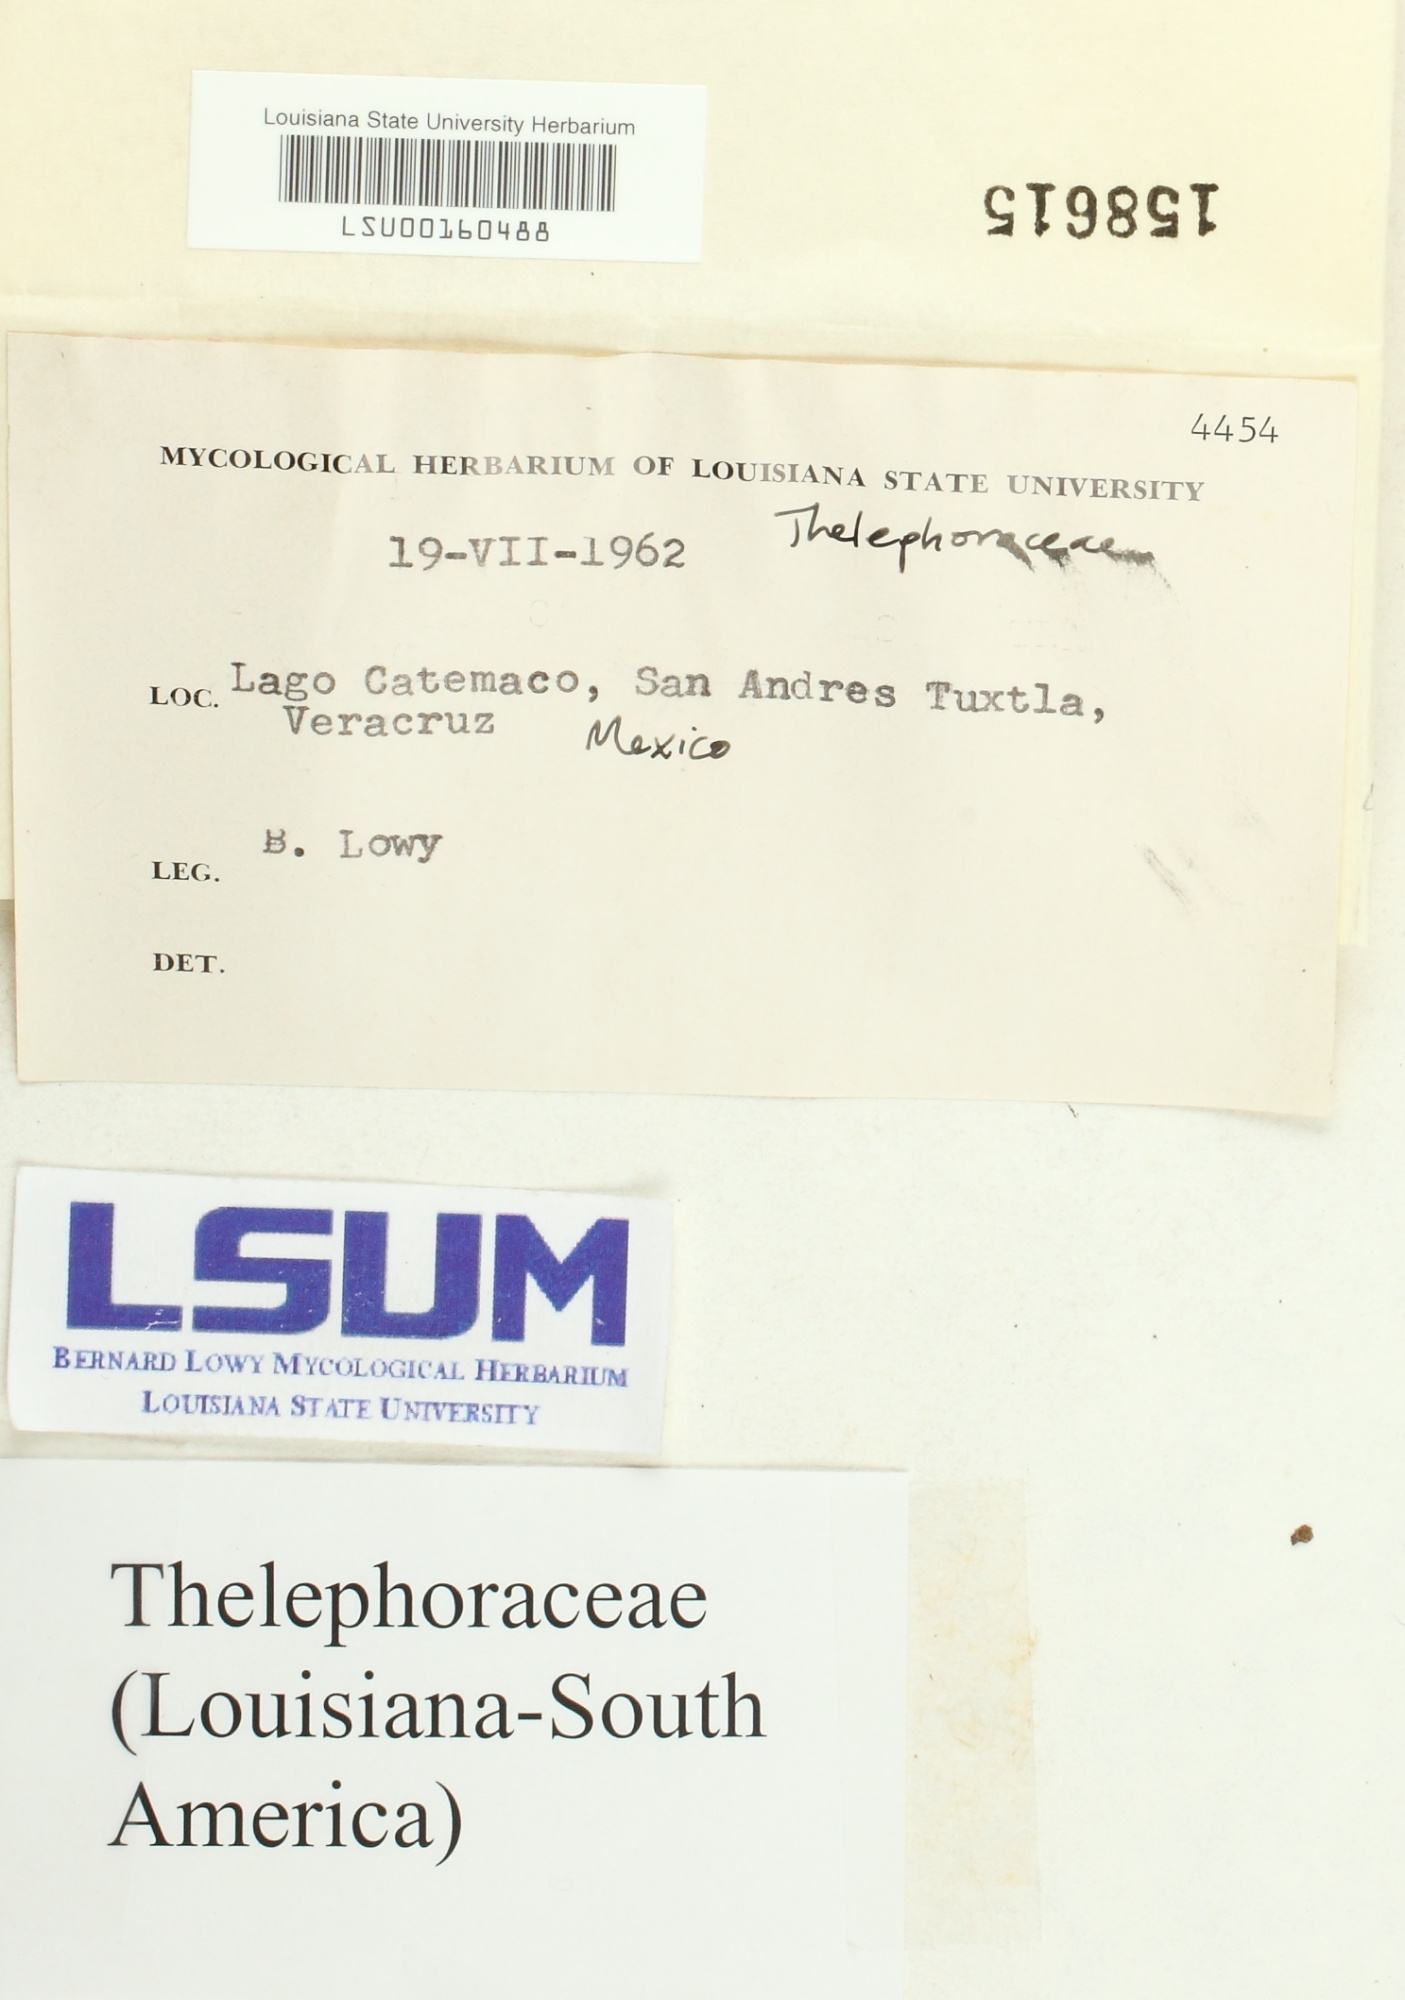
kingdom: Fungi
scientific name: Fungi
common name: Fungi
